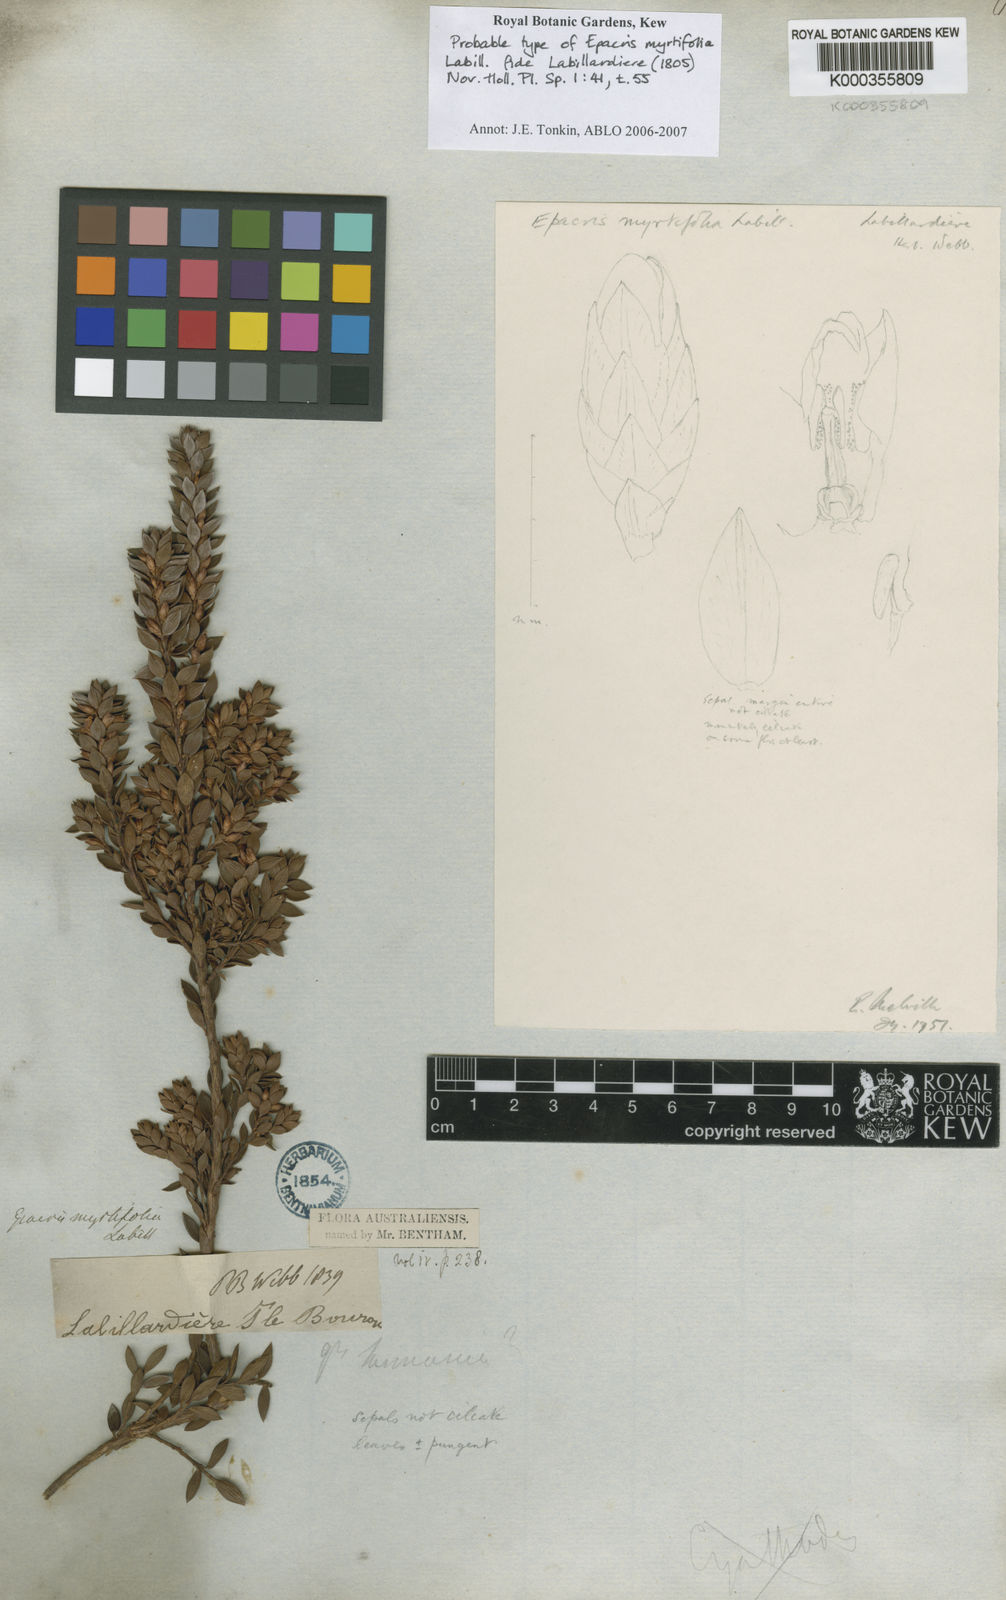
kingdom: Plantae
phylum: Tracheophyta
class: Magnoliopsida
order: Ericales
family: Ericaceae
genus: Epacris
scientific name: Epacris myrtifolia
